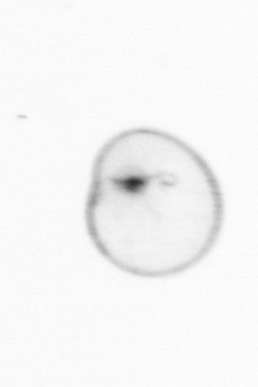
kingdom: Chromista
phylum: Myzozoa
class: Dinophyceae
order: Noctilucales
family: Noctilucaceae
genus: Noctiluca
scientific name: Noctiluca scintillans
